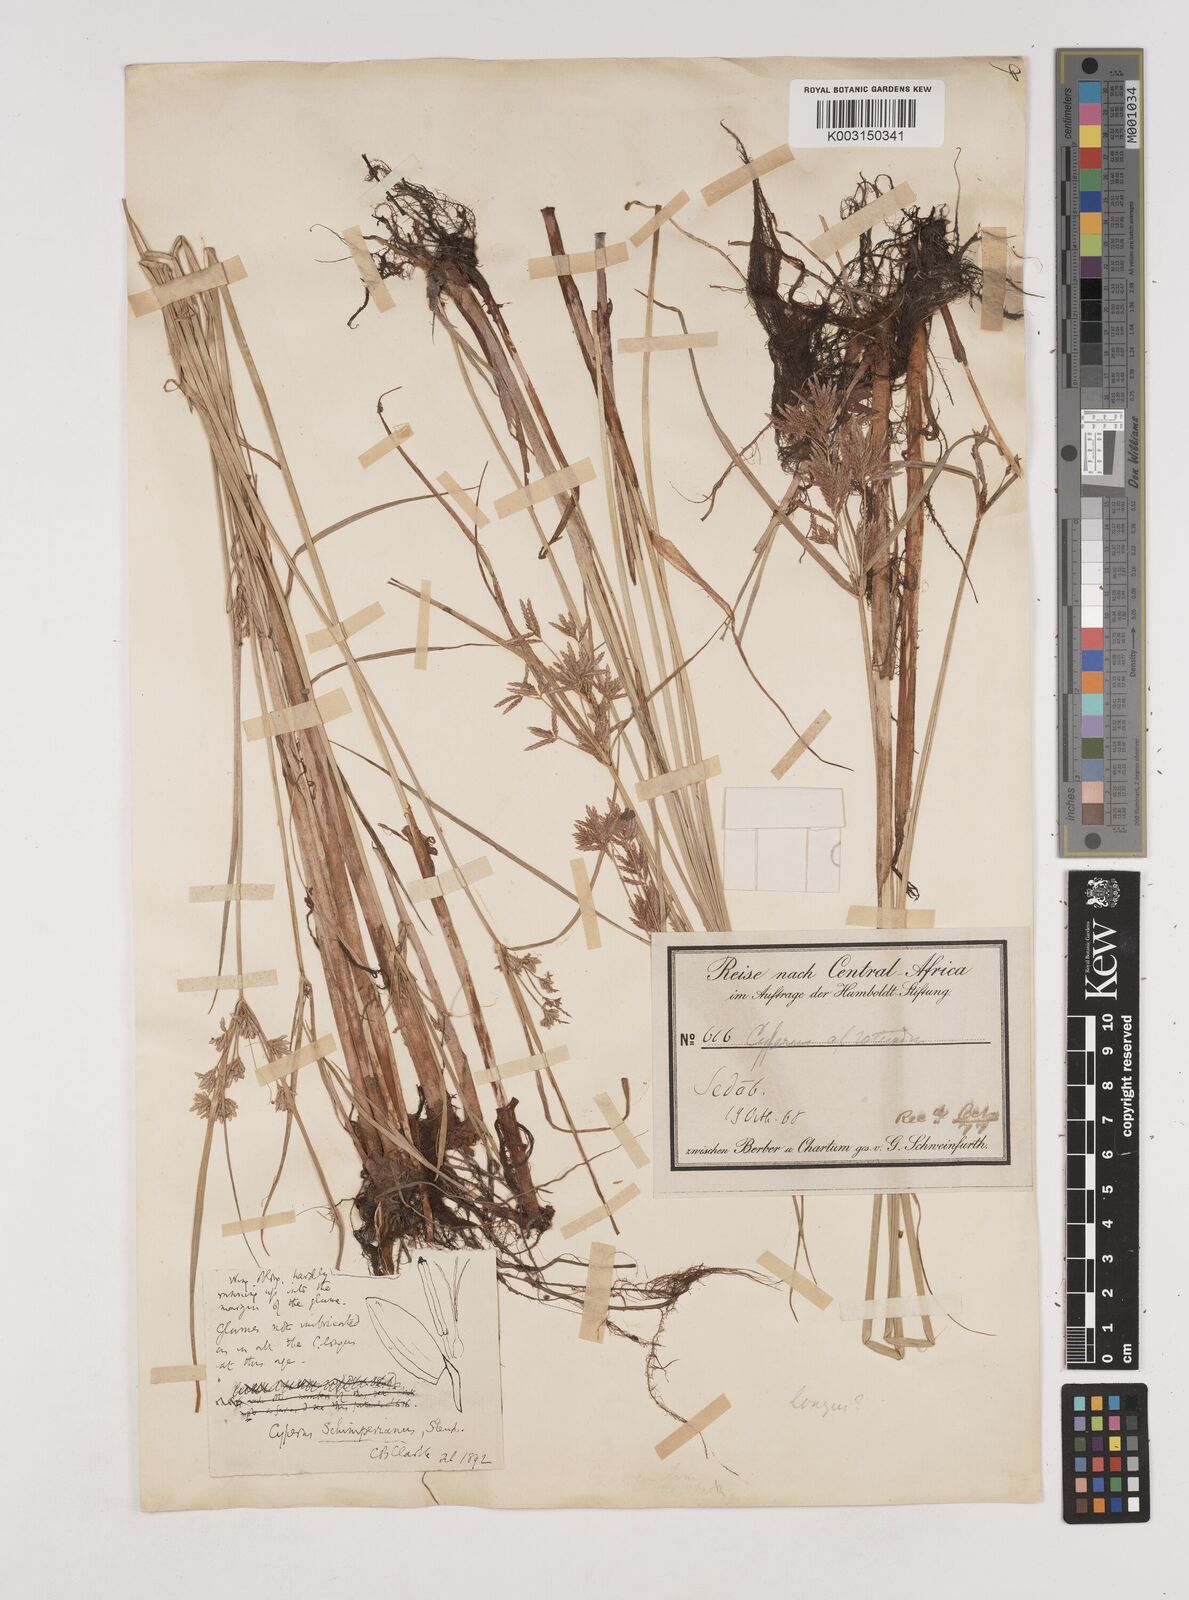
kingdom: Plantae
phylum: Tracheophyta
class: Liliopsida
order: Poales
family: Cyperaceae
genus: Cyperus
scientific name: Cyperus schimperianus
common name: Schimper flatsedge
